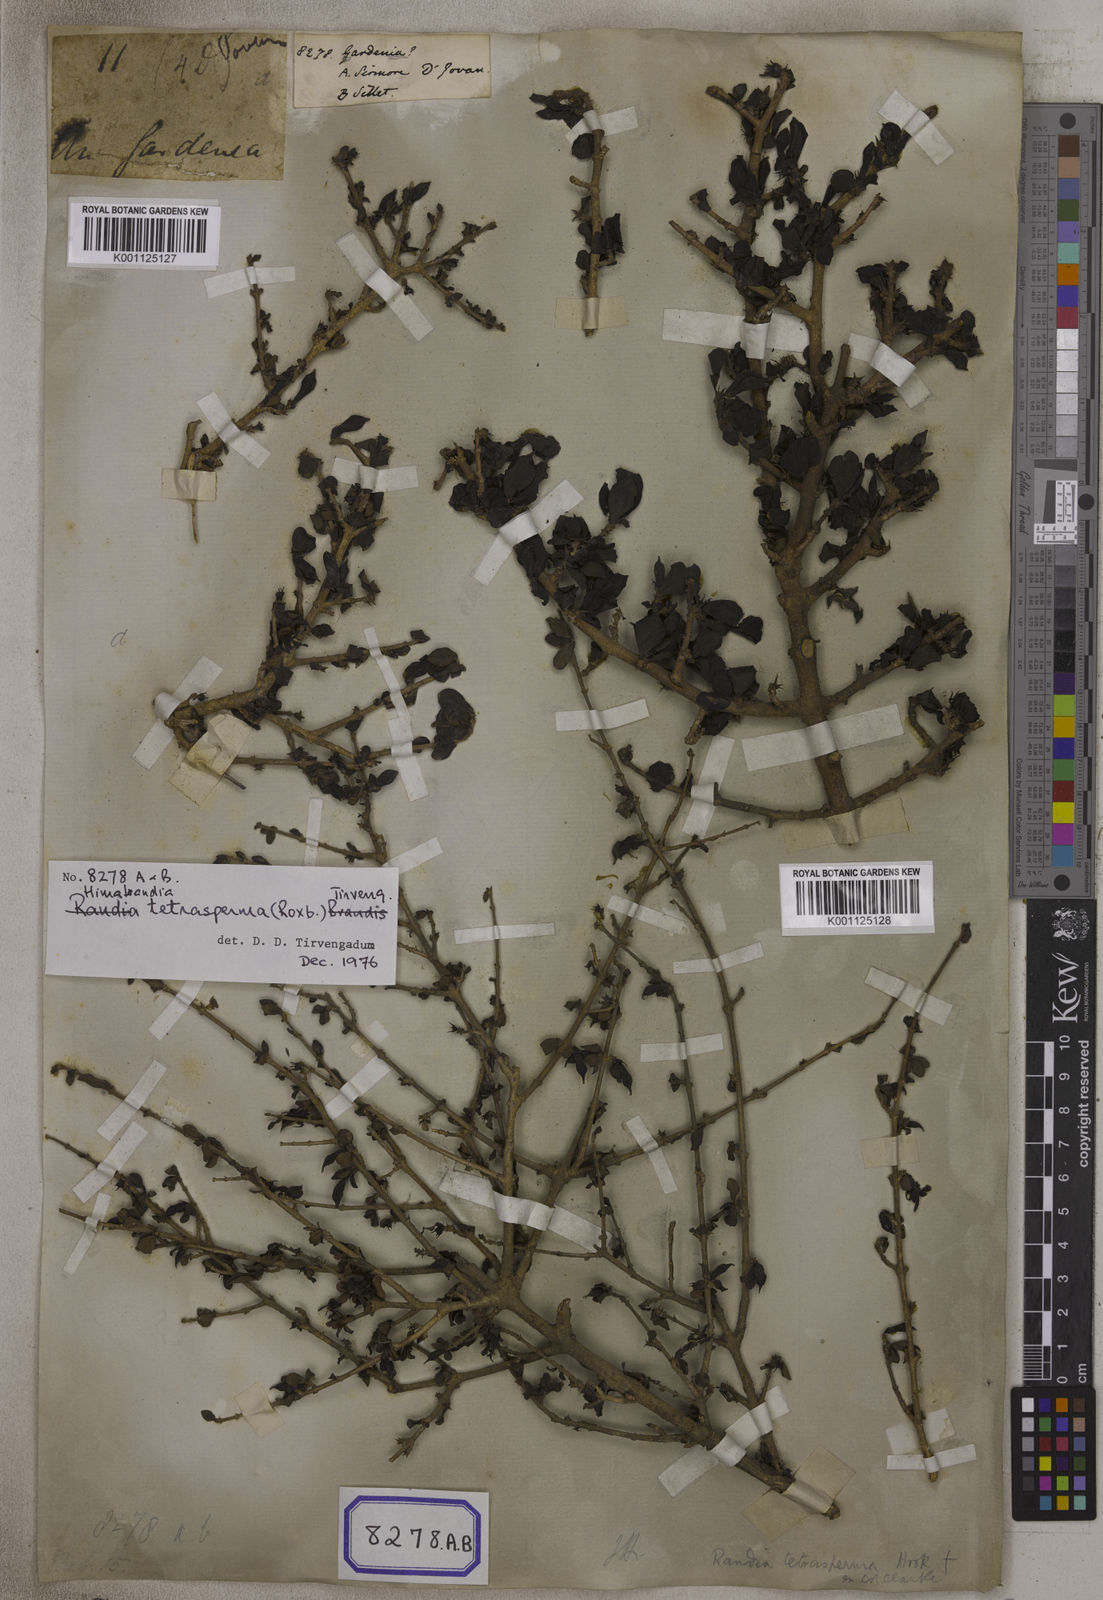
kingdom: Plantae
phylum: Tracheophyta
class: Magnoliopsida
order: Gentianales
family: Rubiaceae
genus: Gardenia
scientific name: Gardenia
